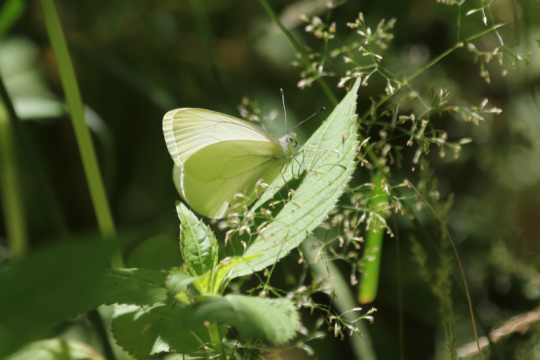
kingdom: Animalia
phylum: Arthropoda
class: Insecta
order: Lepidoptera
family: Pieridae
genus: Pieris
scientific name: Pieris marginalis
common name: Margined White
